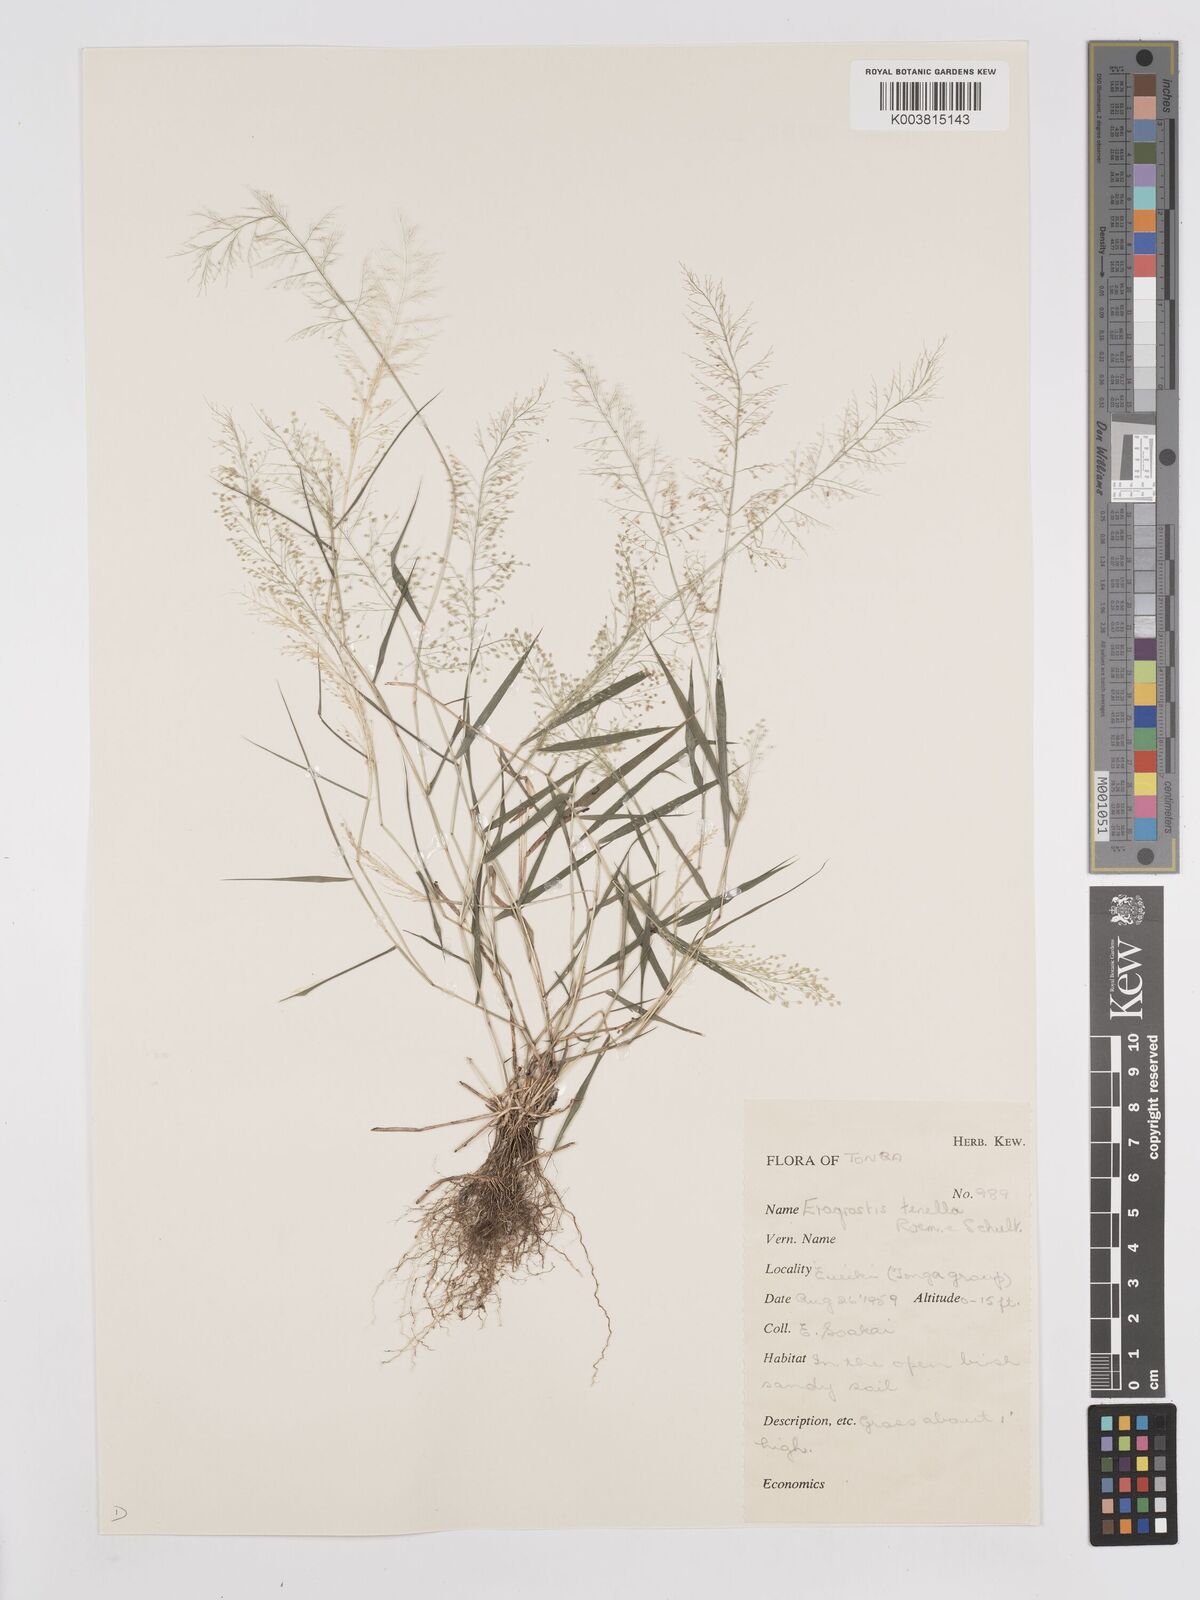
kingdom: Plantae
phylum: Tracheophyta
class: Liliopsida
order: Poales
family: Poaceae
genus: Eragrostis
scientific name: Eragrostis tenella
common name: Japanese lovegrass
